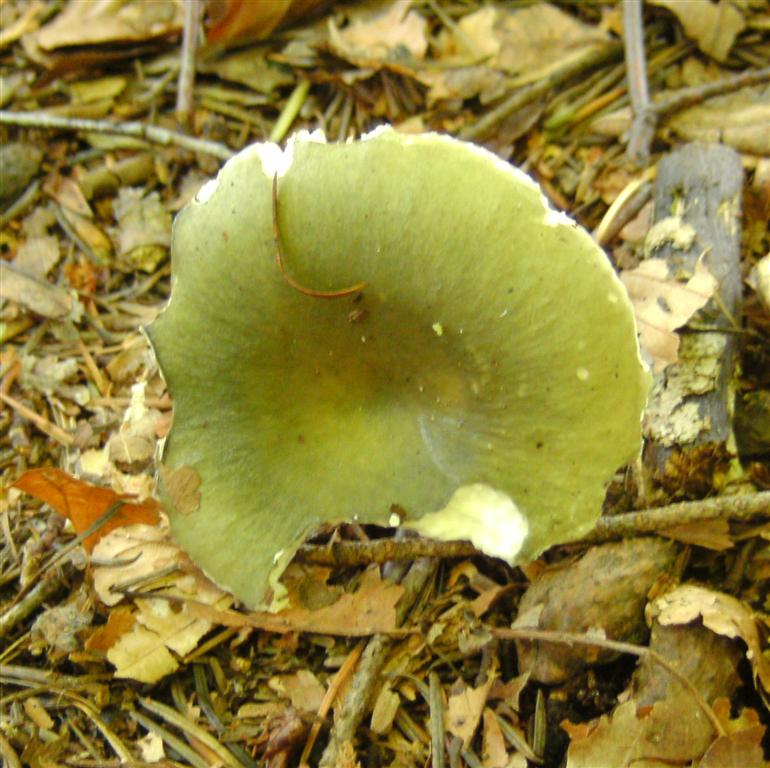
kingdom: Fungi
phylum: Basidiomycota
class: Agaricomycetes
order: Russulales
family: Russulaceae
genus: Russula
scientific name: Russula
